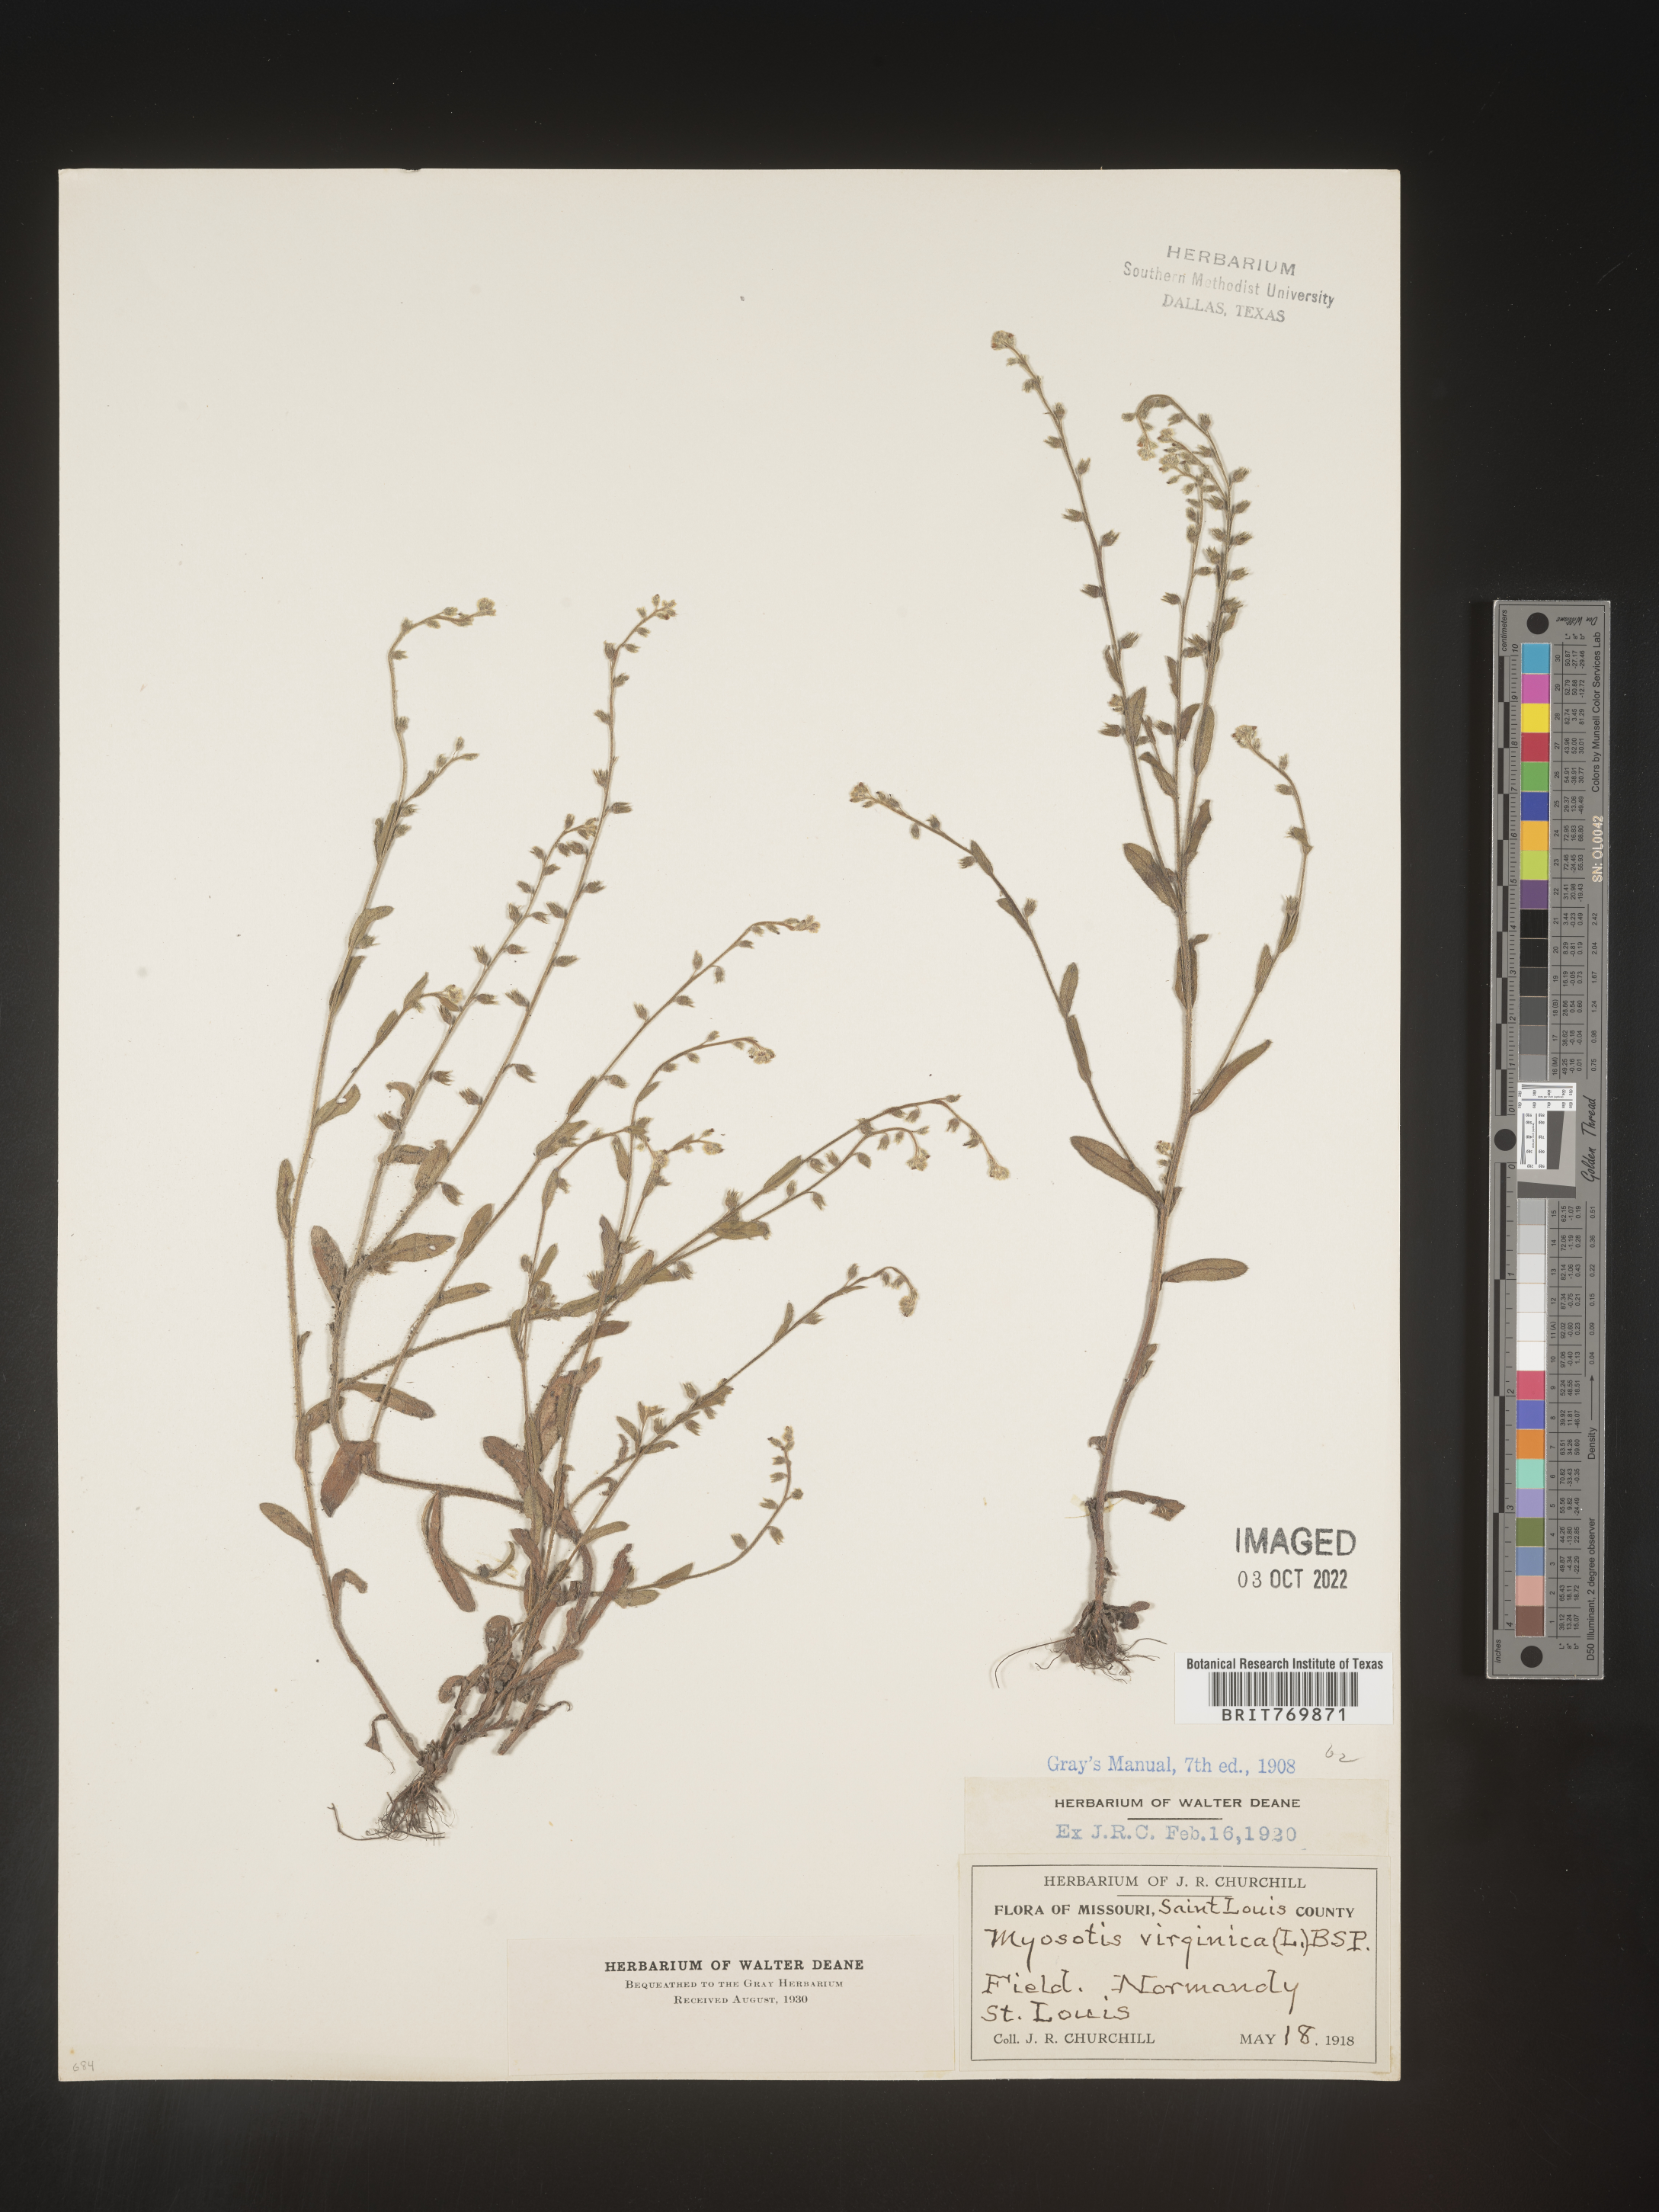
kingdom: Plantae
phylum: Tracheophyta
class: Magnoliopsida
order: Boraginales
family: Boraginaceae
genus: Myosotis
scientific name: Myosotis
